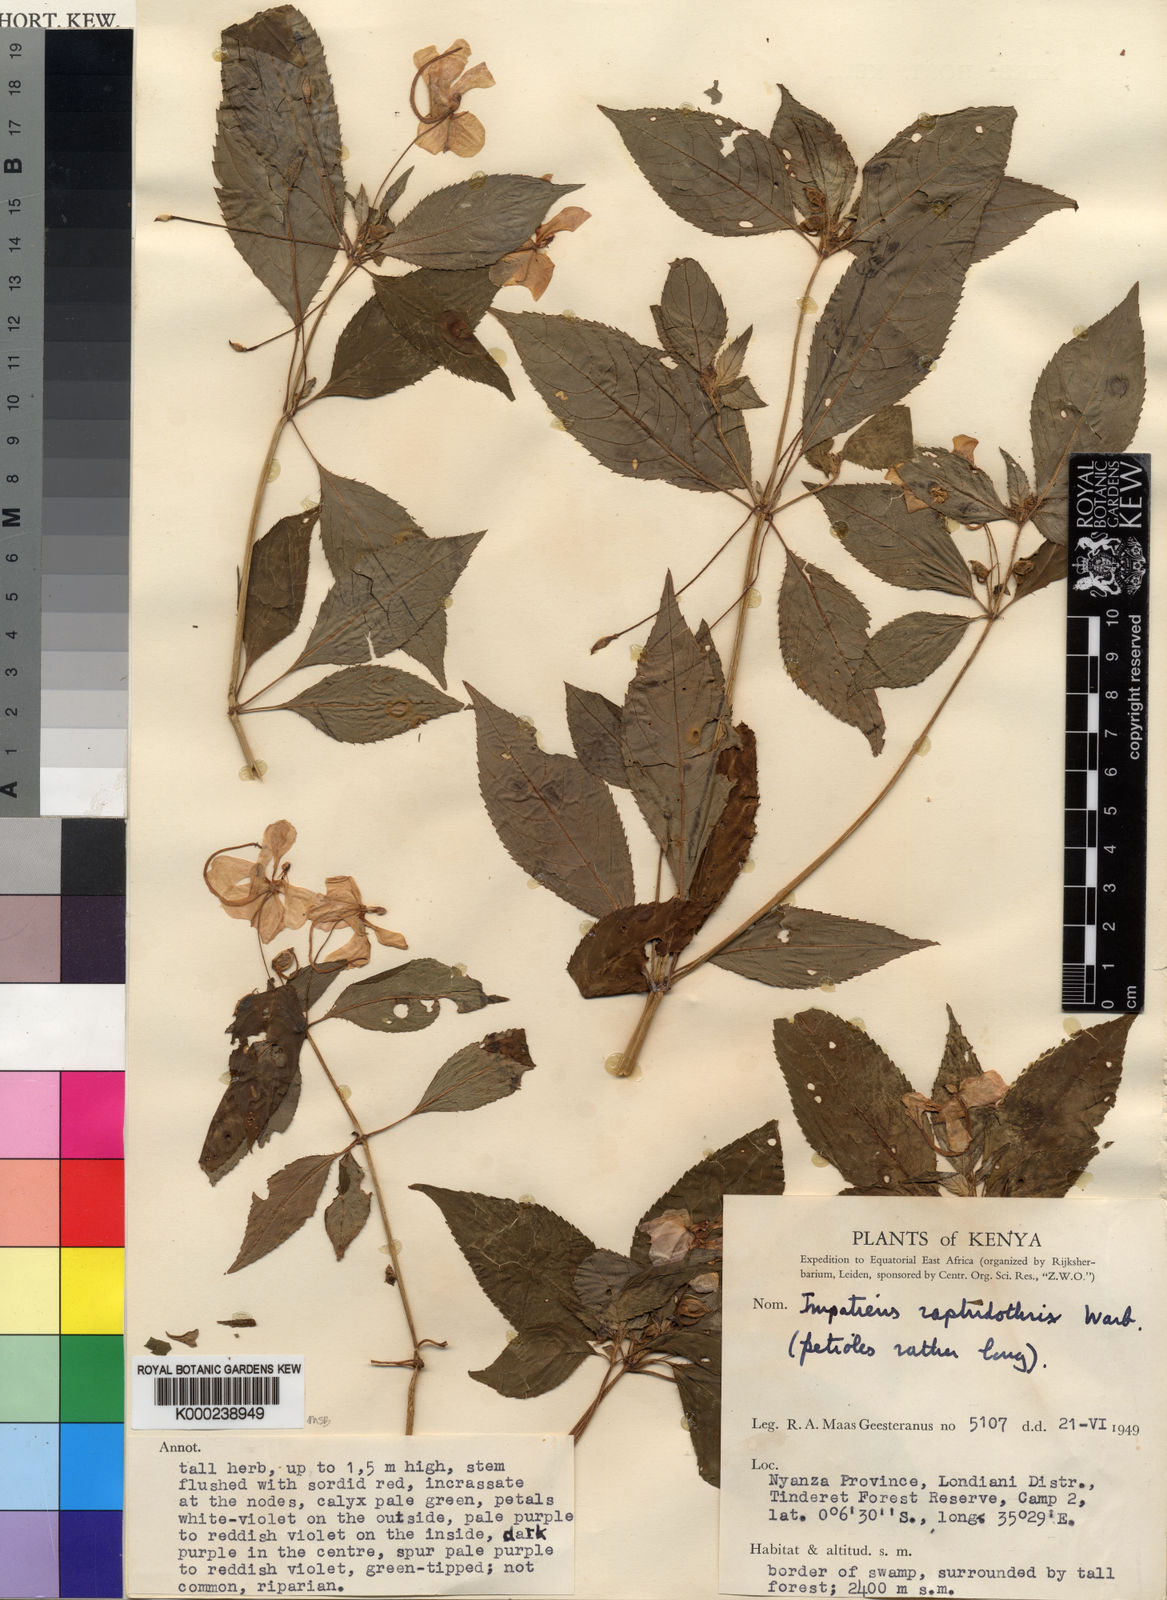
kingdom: Plantae
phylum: Tracheophyta
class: Magnoliopsida
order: Ericales
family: Balsaminaceae
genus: Impatiens
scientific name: Impatiens raphidothrix
